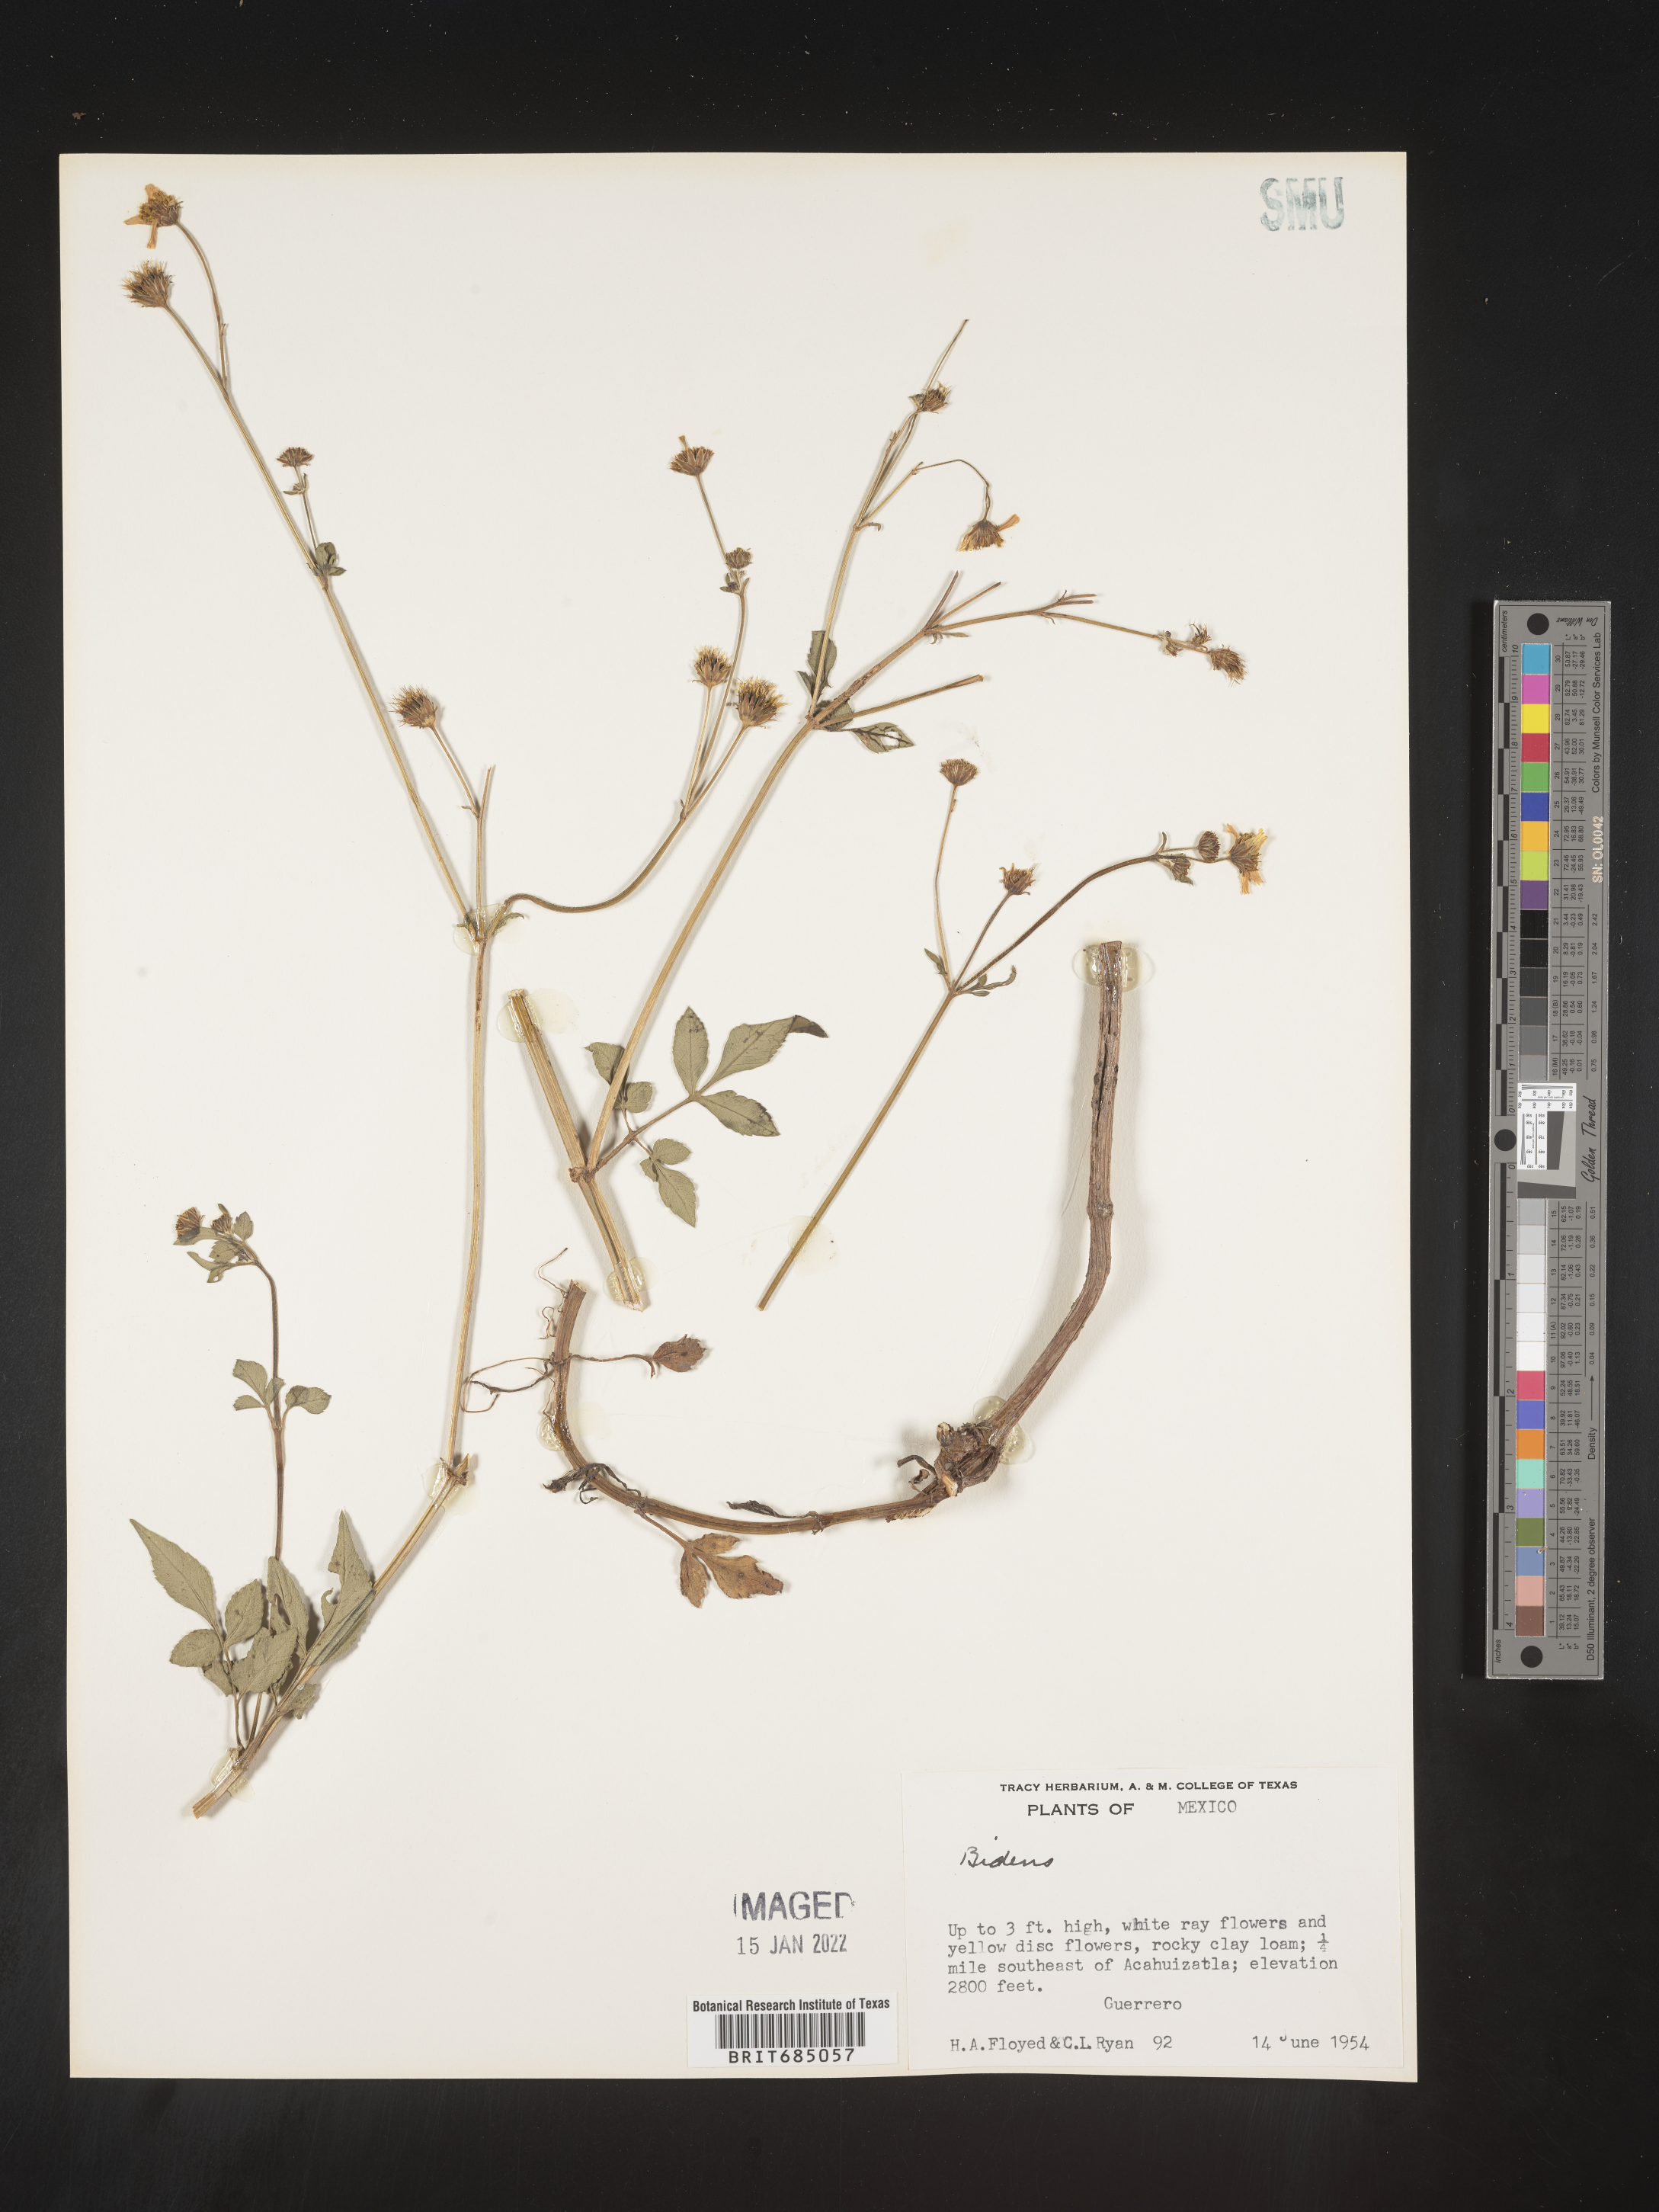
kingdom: Plantae
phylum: Tracheophyta
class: Magnoliopsida
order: Asterales
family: Asteraceae
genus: Bidens
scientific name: Bidens
